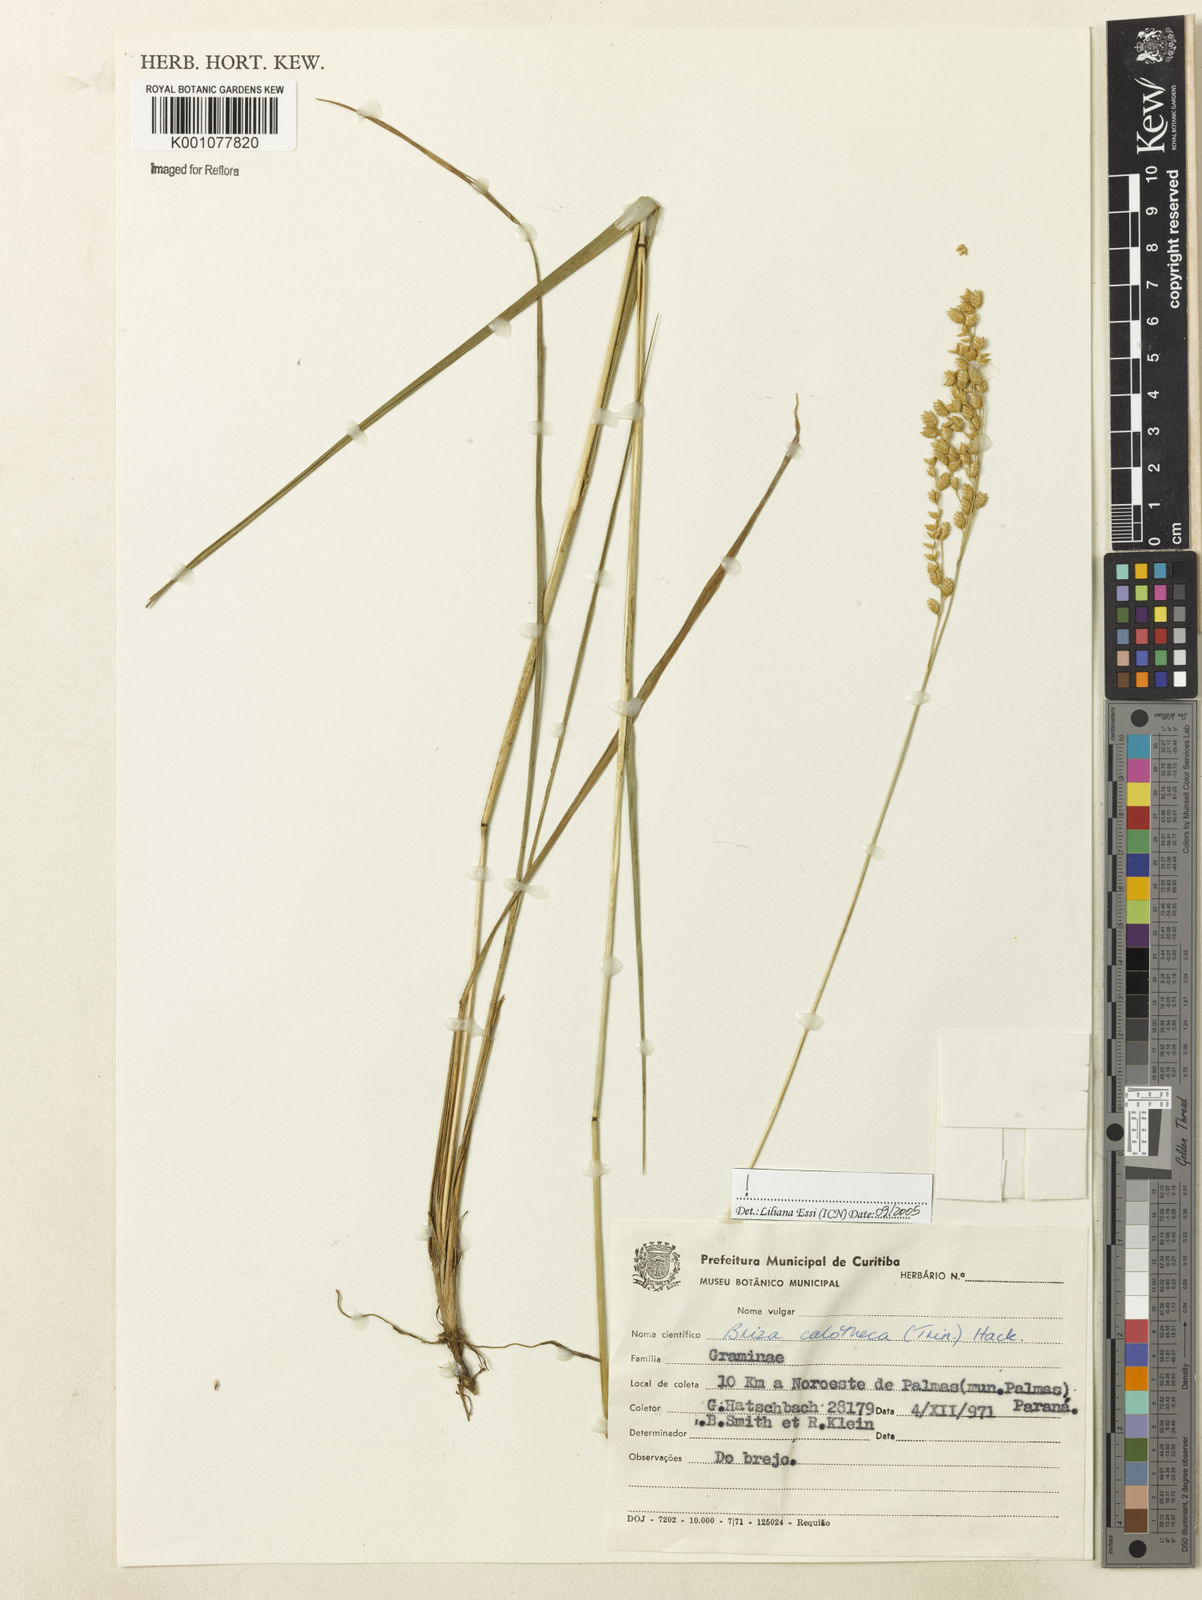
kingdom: Plantae
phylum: Tracheophyta
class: Liliopsida
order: Poales
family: Poaceae
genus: Poidium
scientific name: Poidium calotheca
